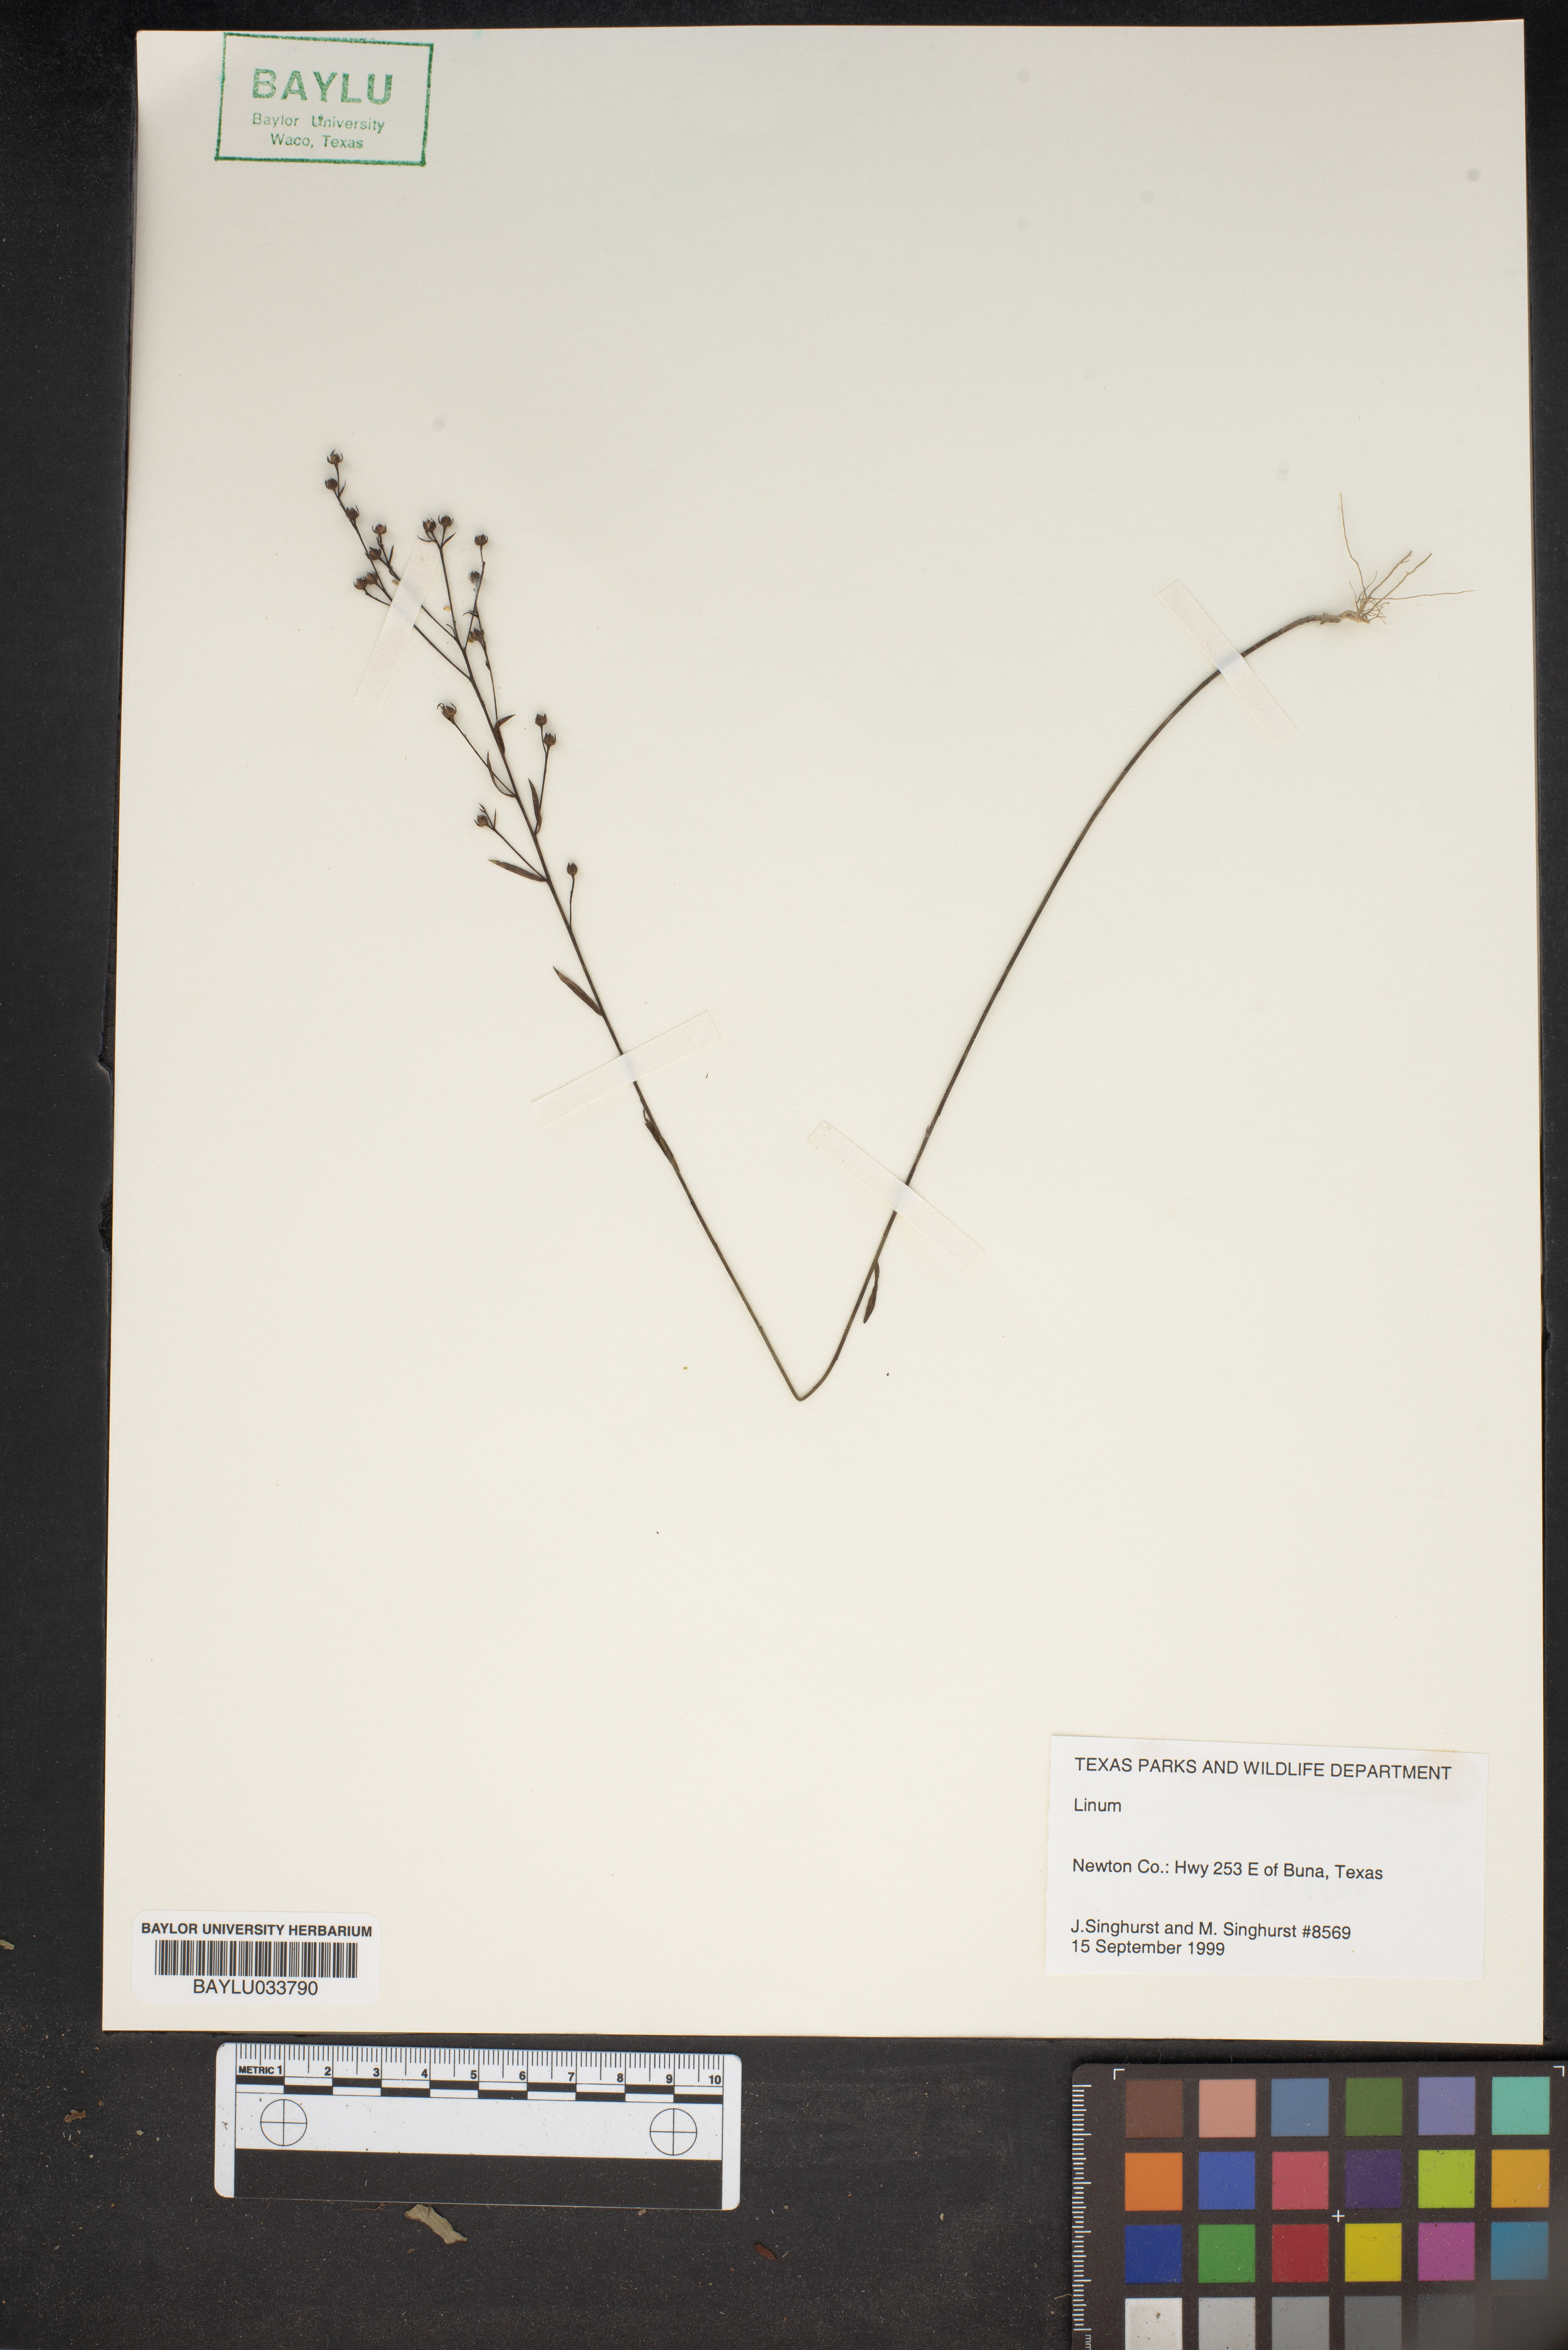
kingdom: Plantae
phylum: Tracheophyta
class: Magnoliopsida
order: Malpighiales
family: Linaceae
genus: Linum
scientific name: Linum
